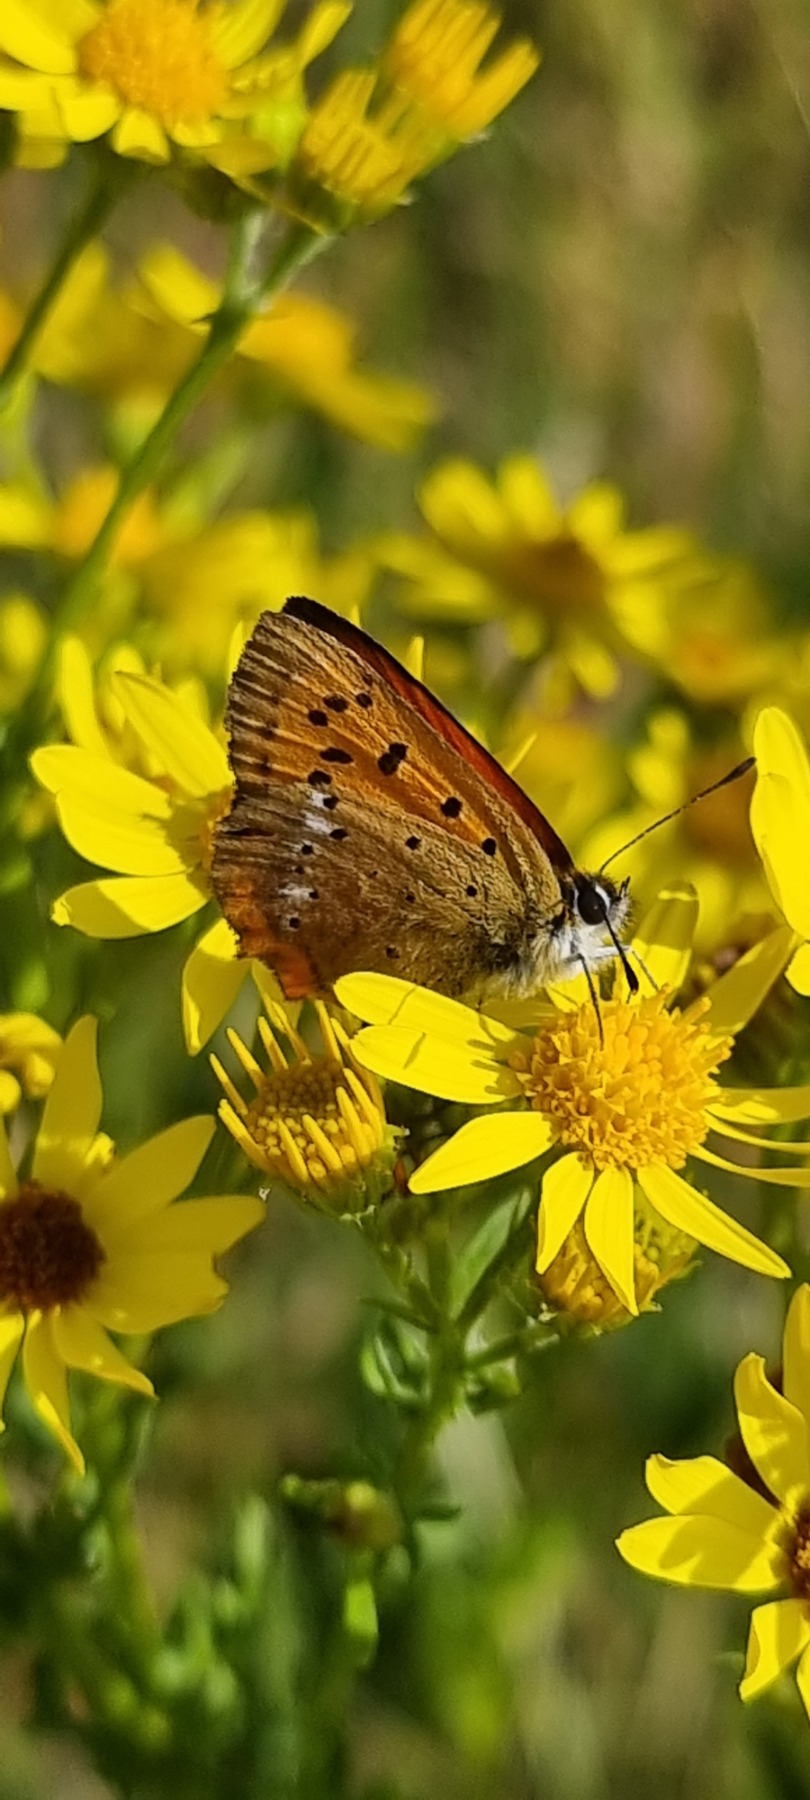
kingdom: Animalia
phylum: Arthropoda
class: Insecta
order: Lepidoptera
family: Lycaenidae
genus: Lycaena
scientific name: Lycaena virgaureae
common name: Dukatsommerfugl
